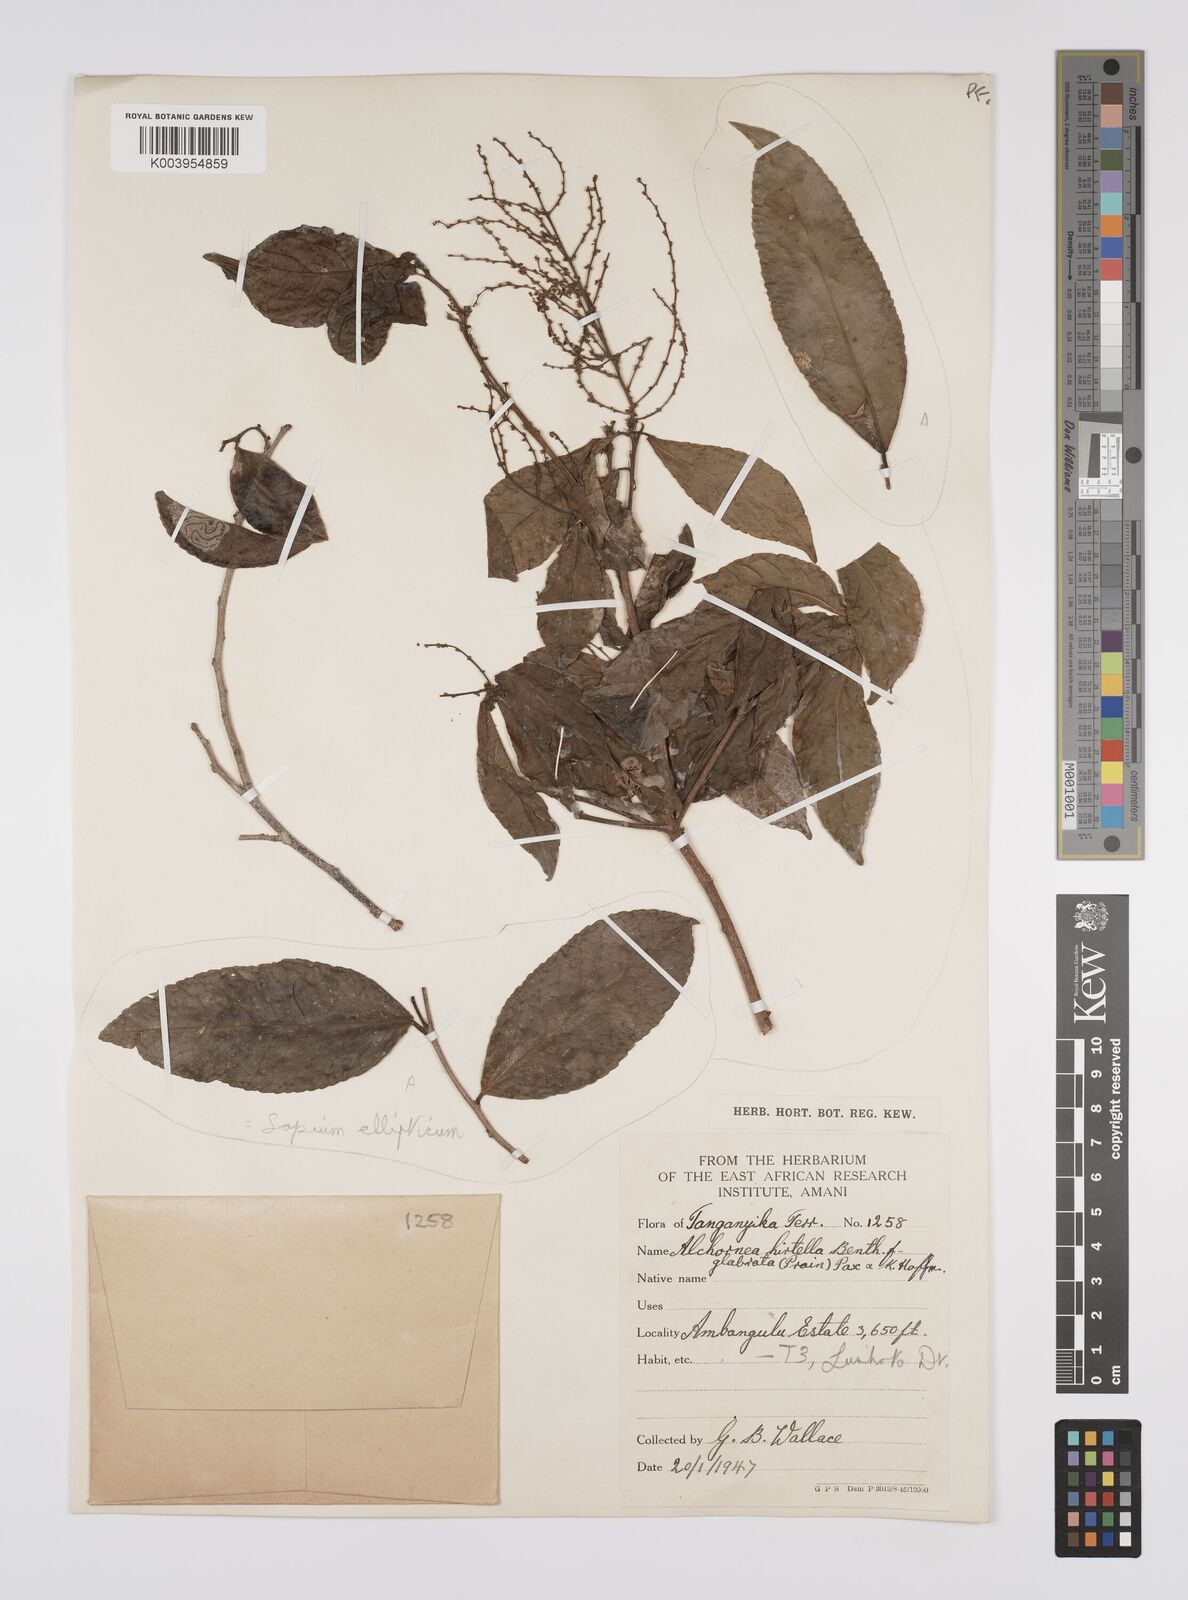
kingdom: Plantae
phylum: Tracheophyta
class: Magnoliopsida
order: Malpighiales
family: Euphorbiaceae
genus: Alchornea
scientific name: Alchornea hirtella
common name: Forest bead-string
